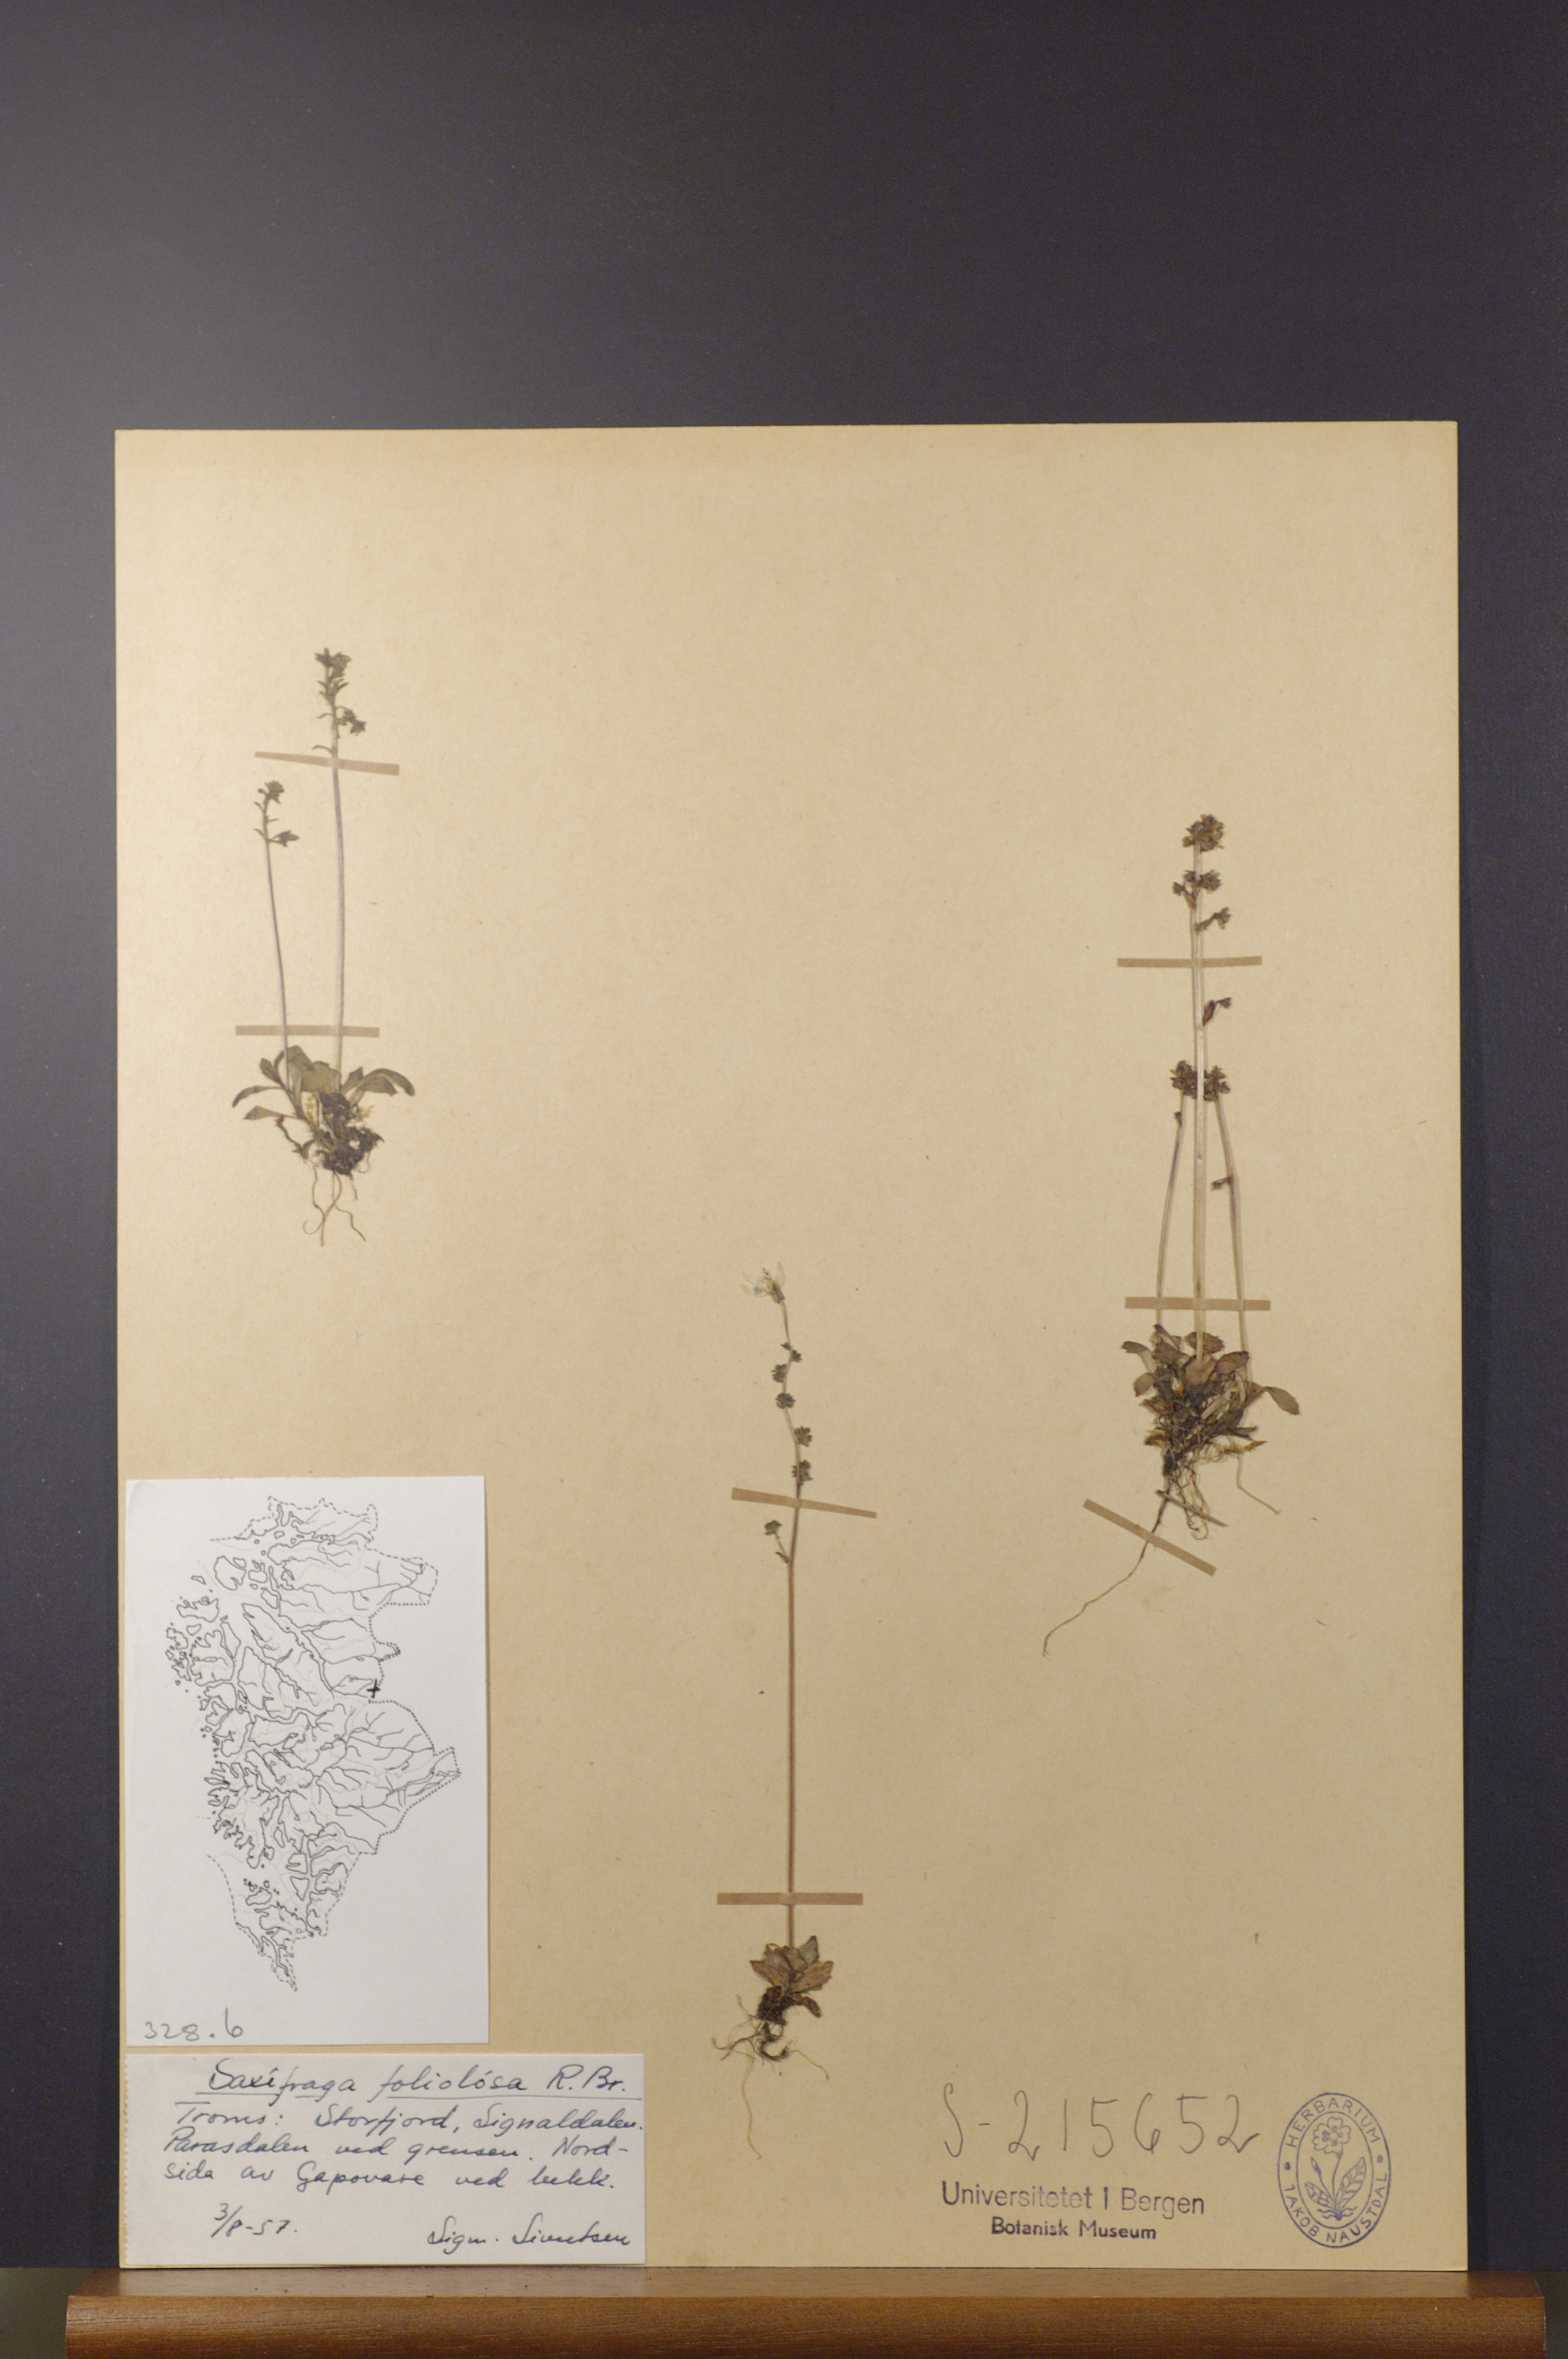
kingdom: Plantae
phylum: Tracheophyta
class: Magnoliopsida
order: Saxifragales
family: Saxifragaceae
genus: Micranthes
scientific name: Micranthes foliolosa
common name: Leafystem saxifrage
